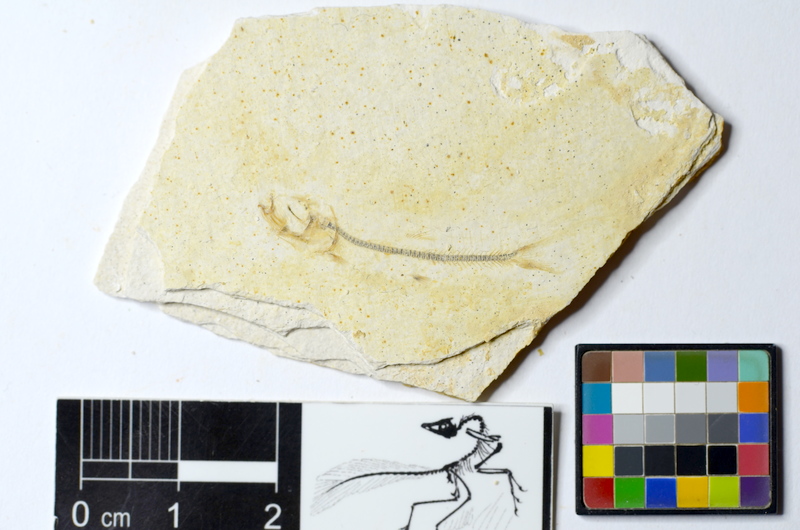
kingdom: Animalia
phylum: Chordata
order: Salmoniformes
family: Orthogonikleithridae
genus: Orthogonikleithrus
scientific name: Orthogonikleithrus hoelli
